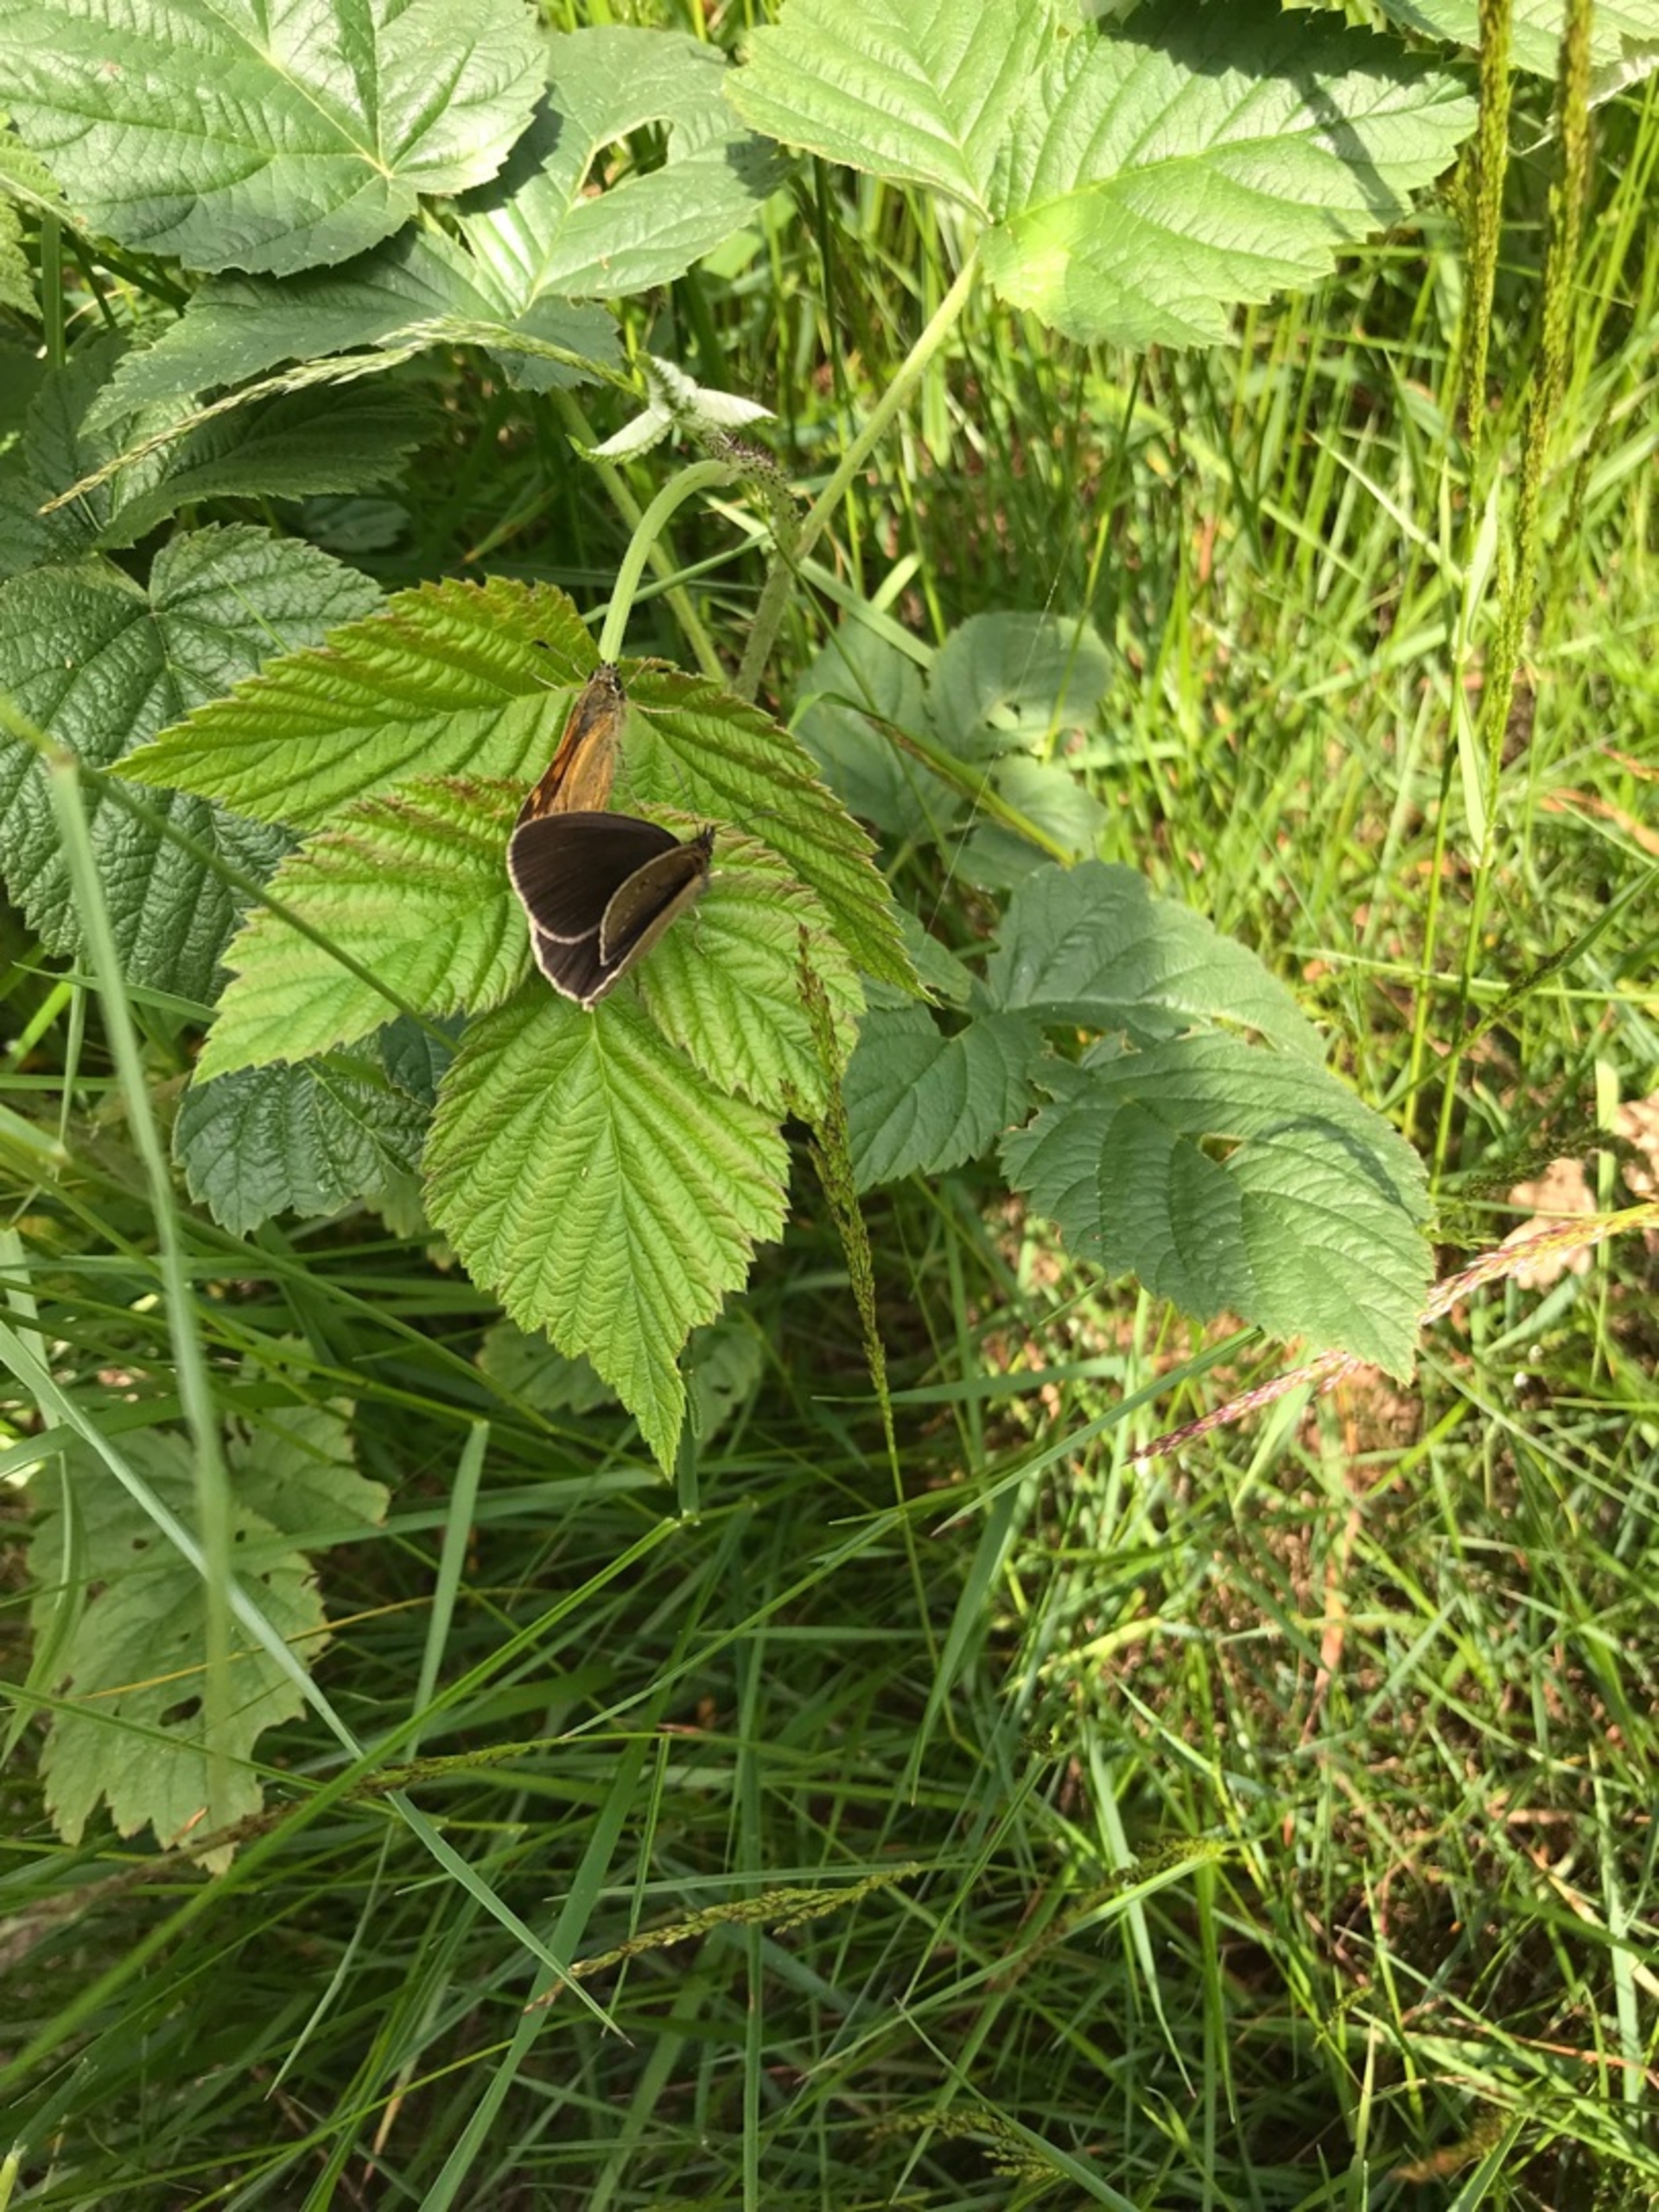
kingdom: Animalia
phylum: Arthropoda
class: Insecta
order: Lepidoptera
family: Nymphalidae
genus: Aphantopus
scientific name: Aphantopus hyperantus
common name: Engrandøje
